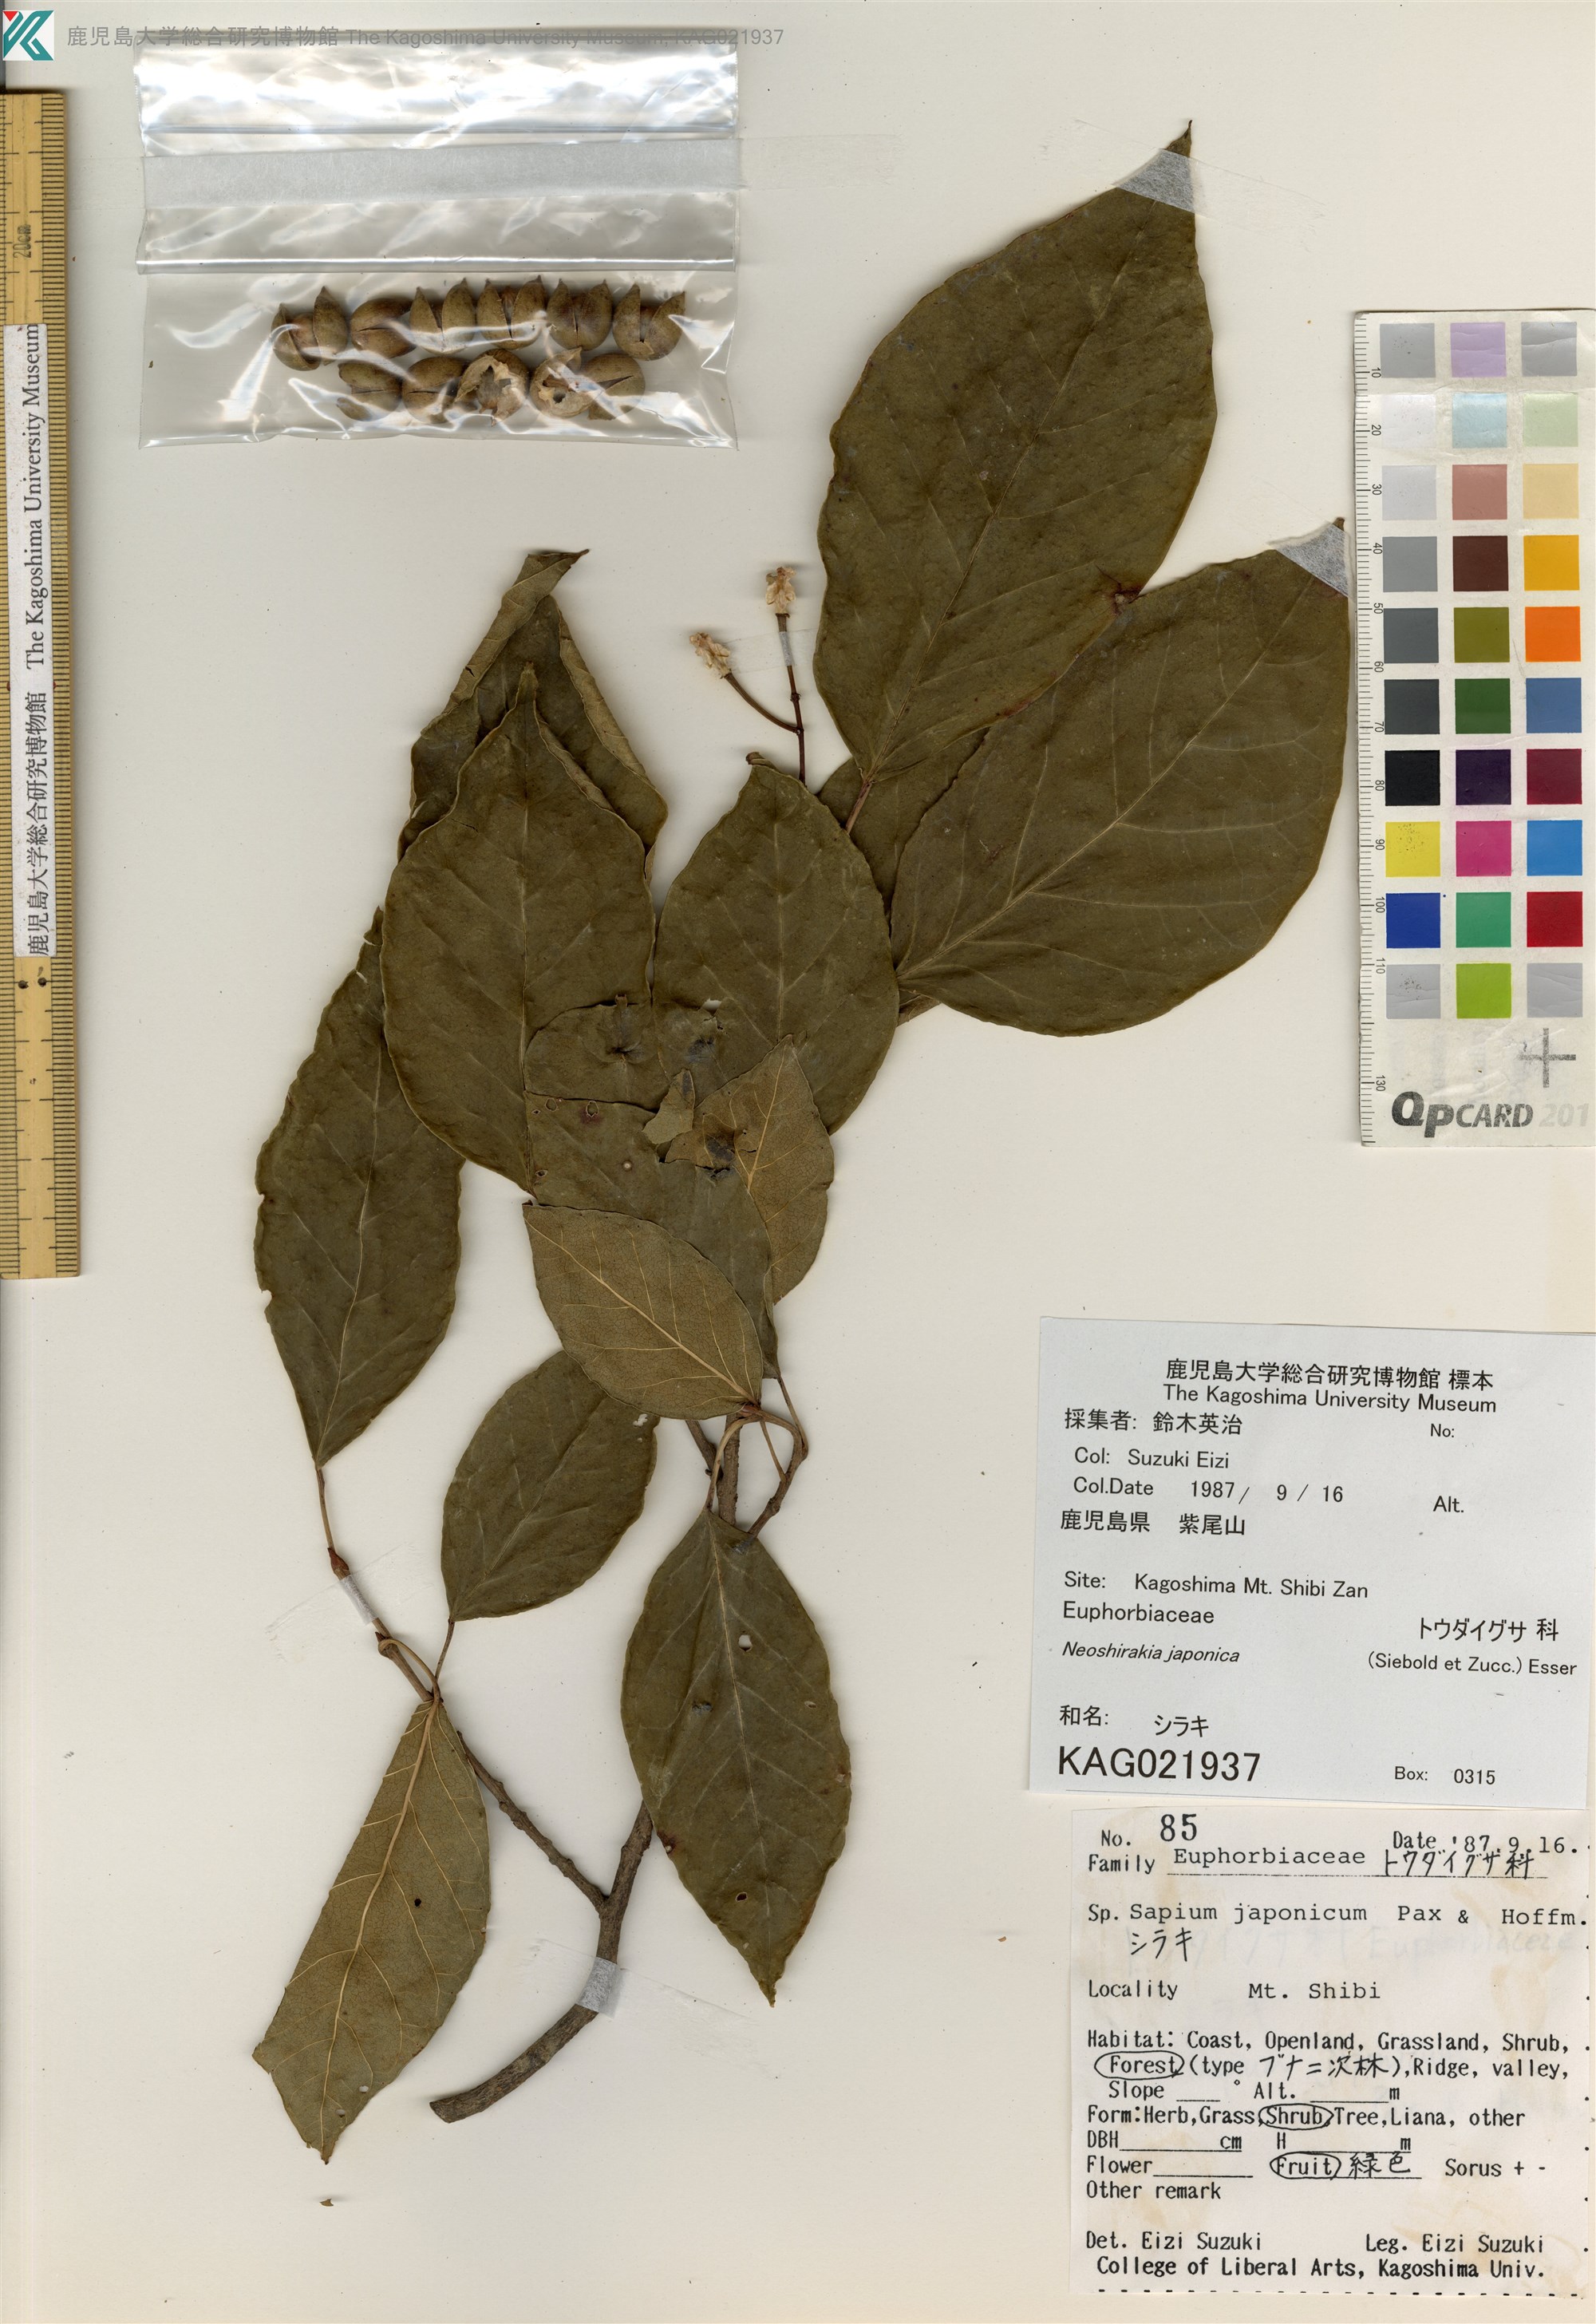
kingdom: Plantae
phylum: Tracheophyta
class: Magnoliopsida
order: Malpighiales
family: Euphorbiaceae
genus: Neoshirakia
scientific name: Neoshirakia japonica
